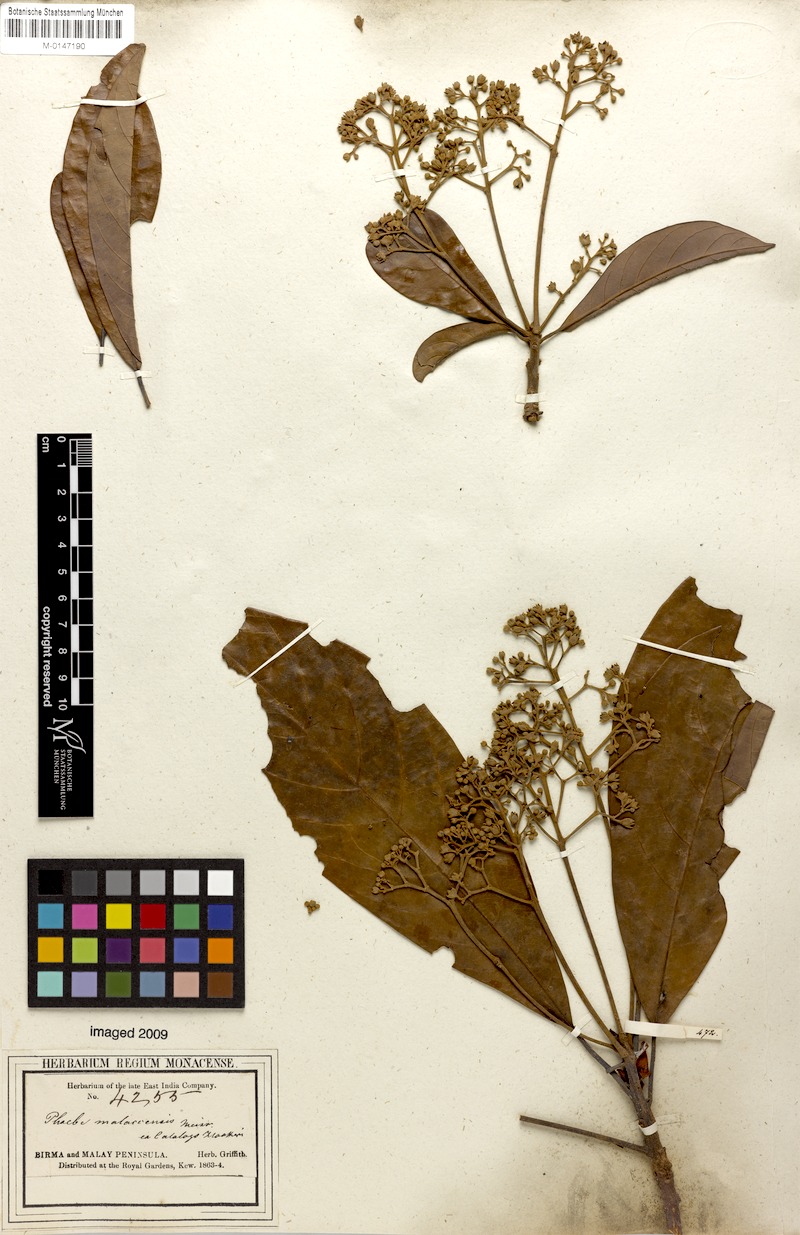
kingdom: Plantae
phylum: Tracheophyta
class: Magnoliopsida
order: Laurales
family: Lauraceae
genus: Phoebe
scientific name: Phoebe grandis
